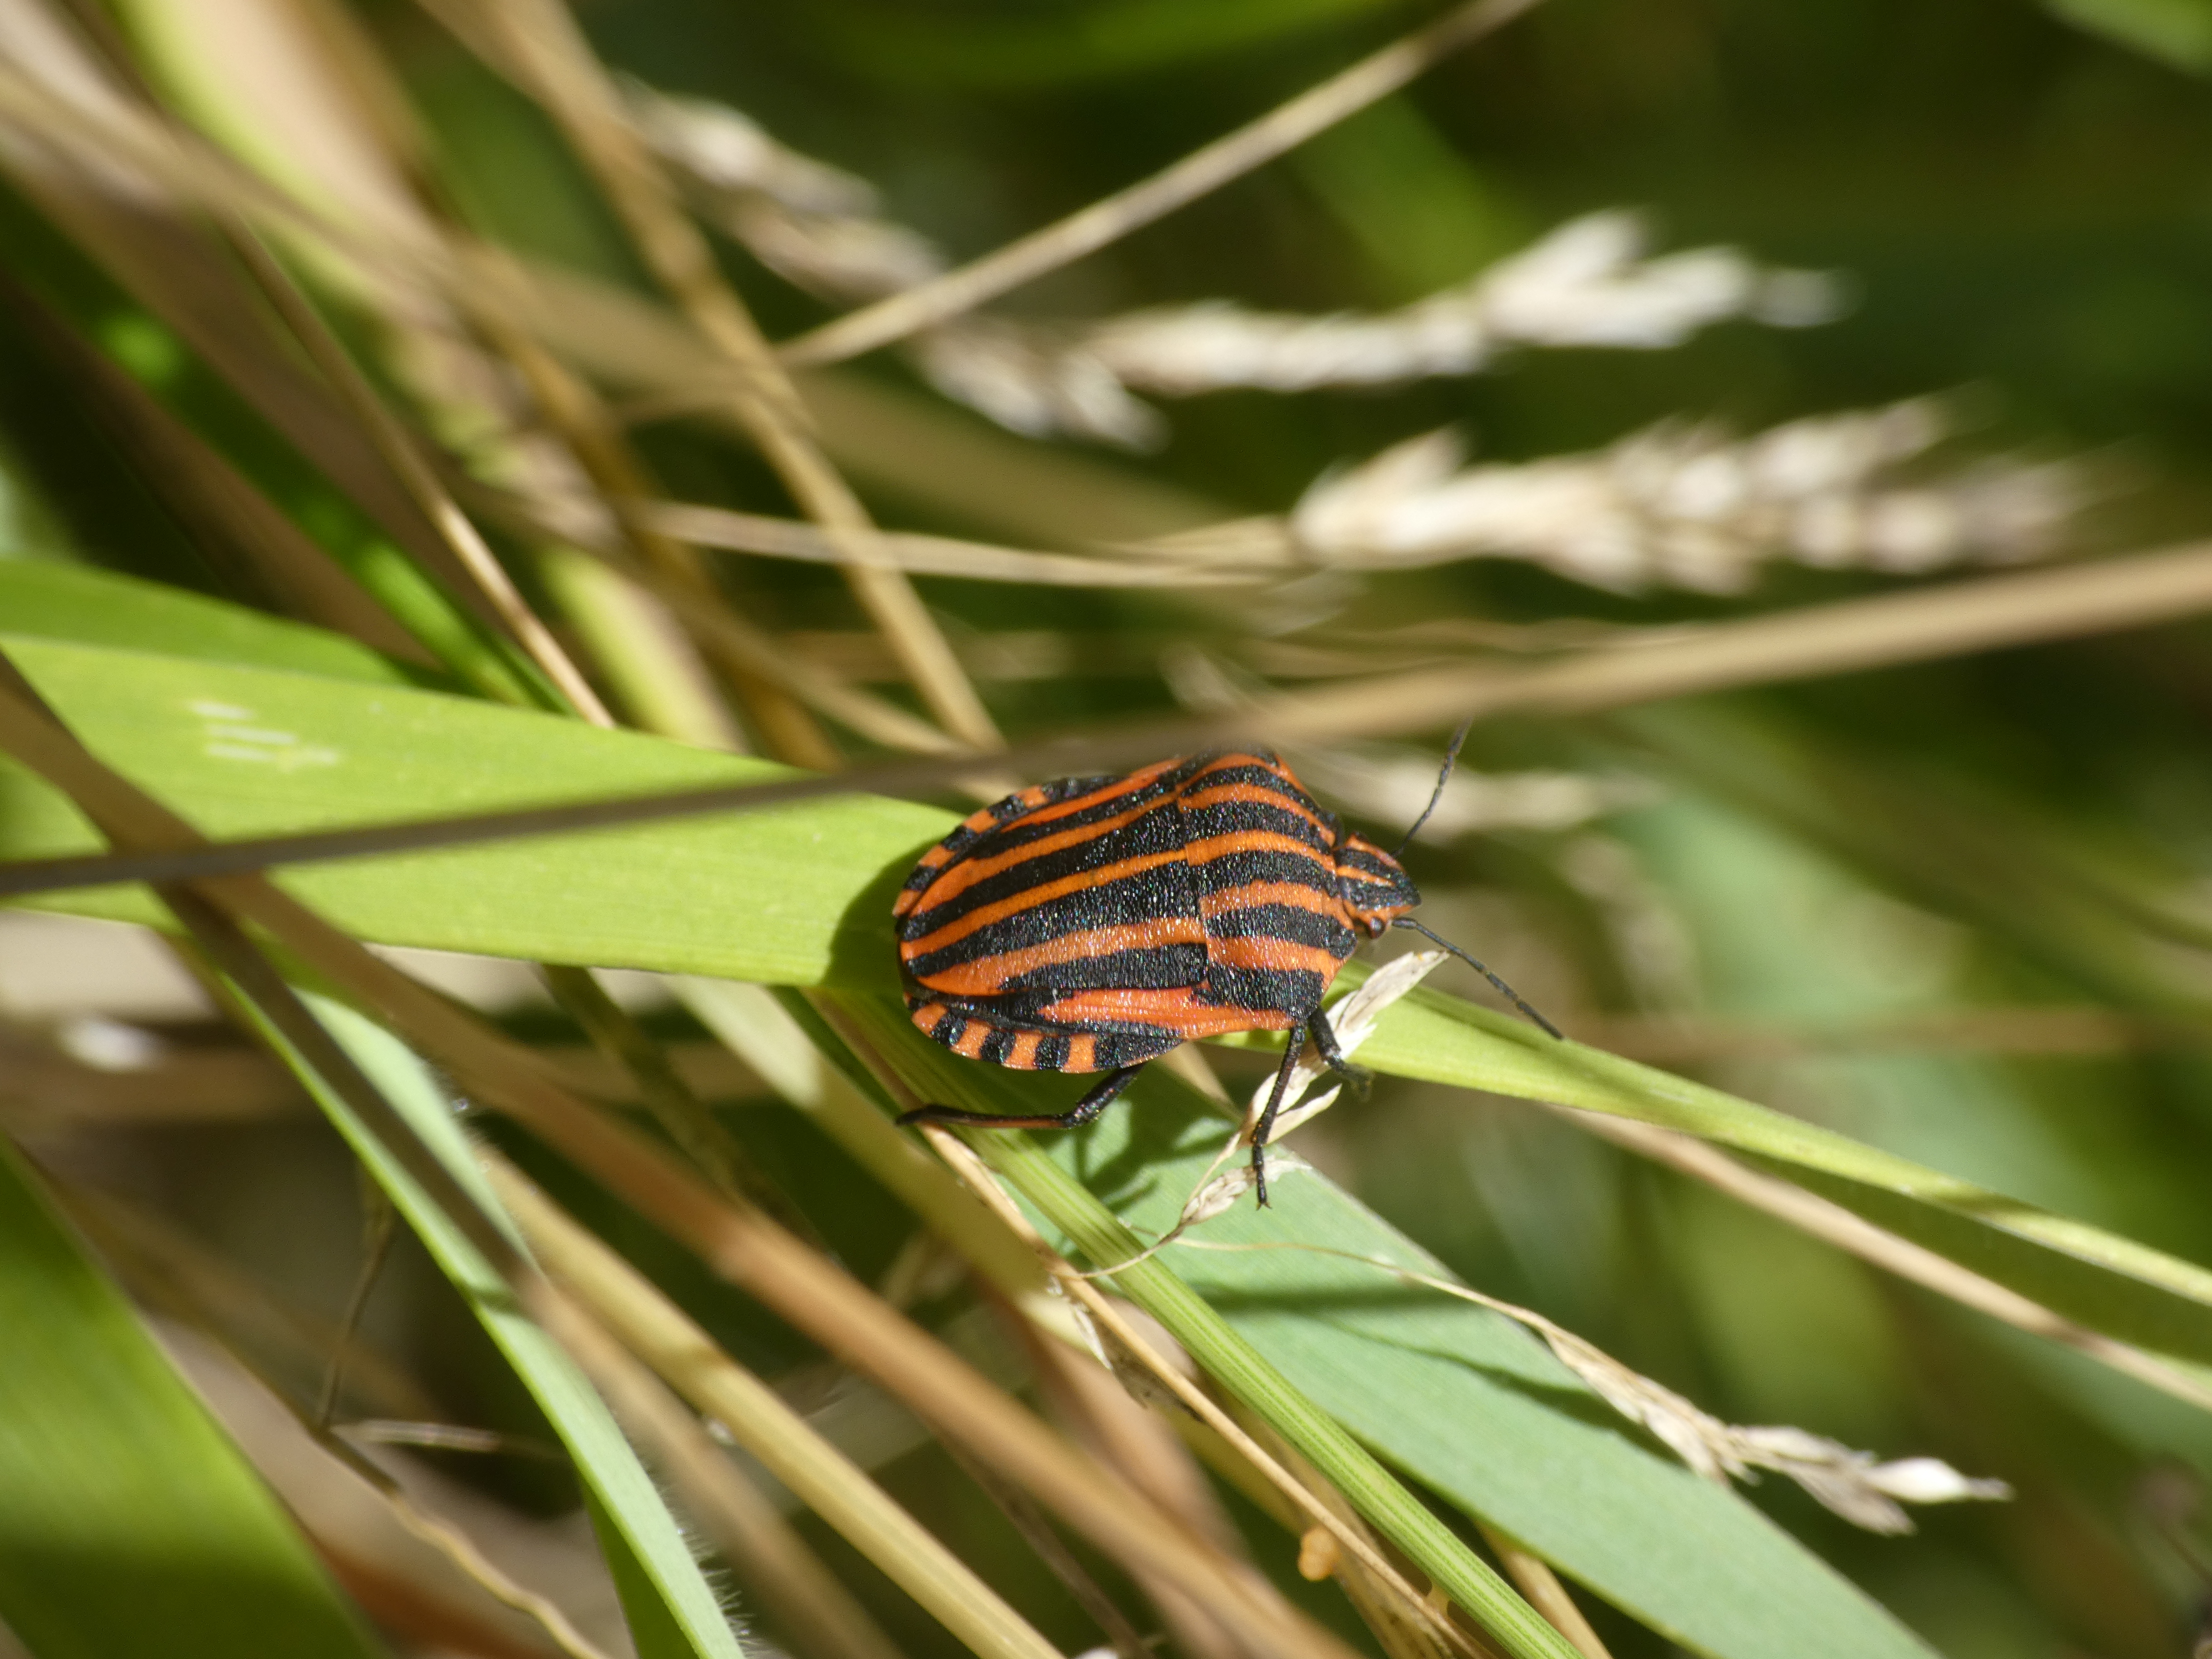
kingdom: Animalia
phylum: Arthropoda
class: Insecta
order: Hemiptera
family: Pentatomidae
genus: Graphosoma
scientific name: Graphosoma italicum
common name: Stribetæge
